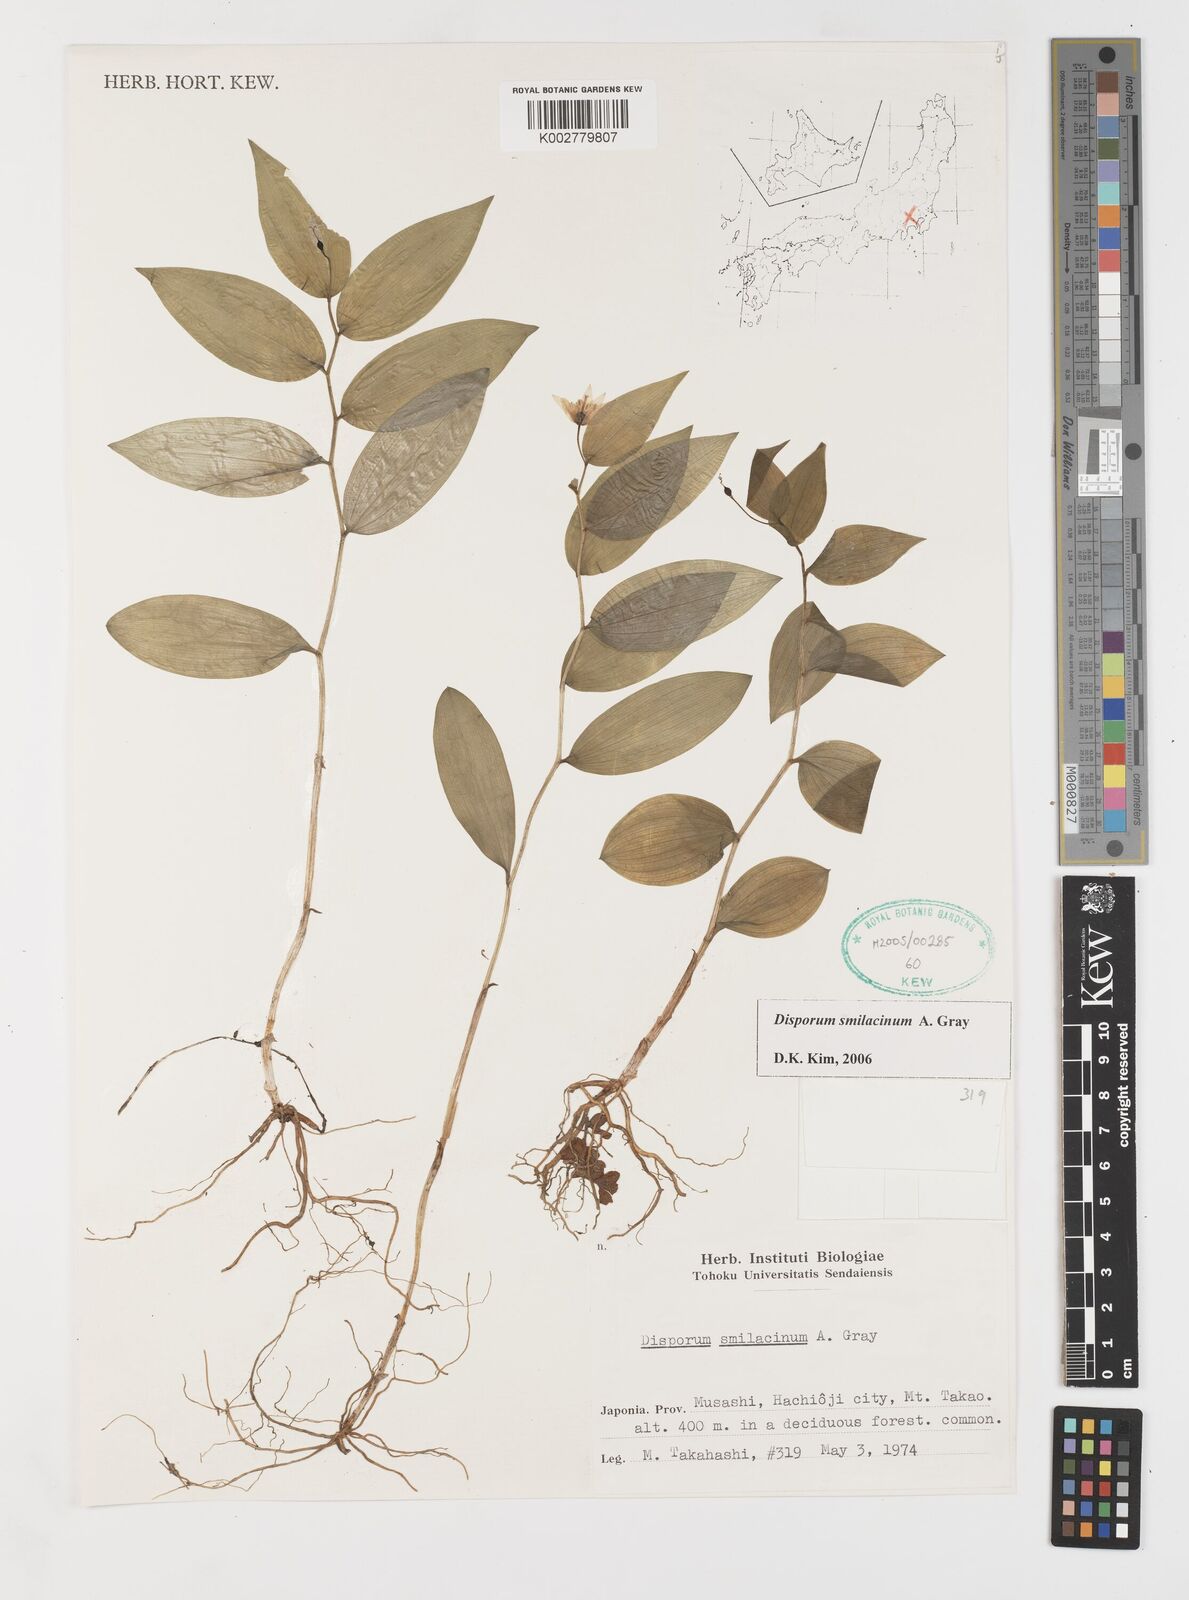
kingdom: Plantae
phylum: Tracheophyta
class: Liliopsida
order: Liliales
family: Colchicaceae
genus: Disporum
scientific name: Disporum smilacinum
